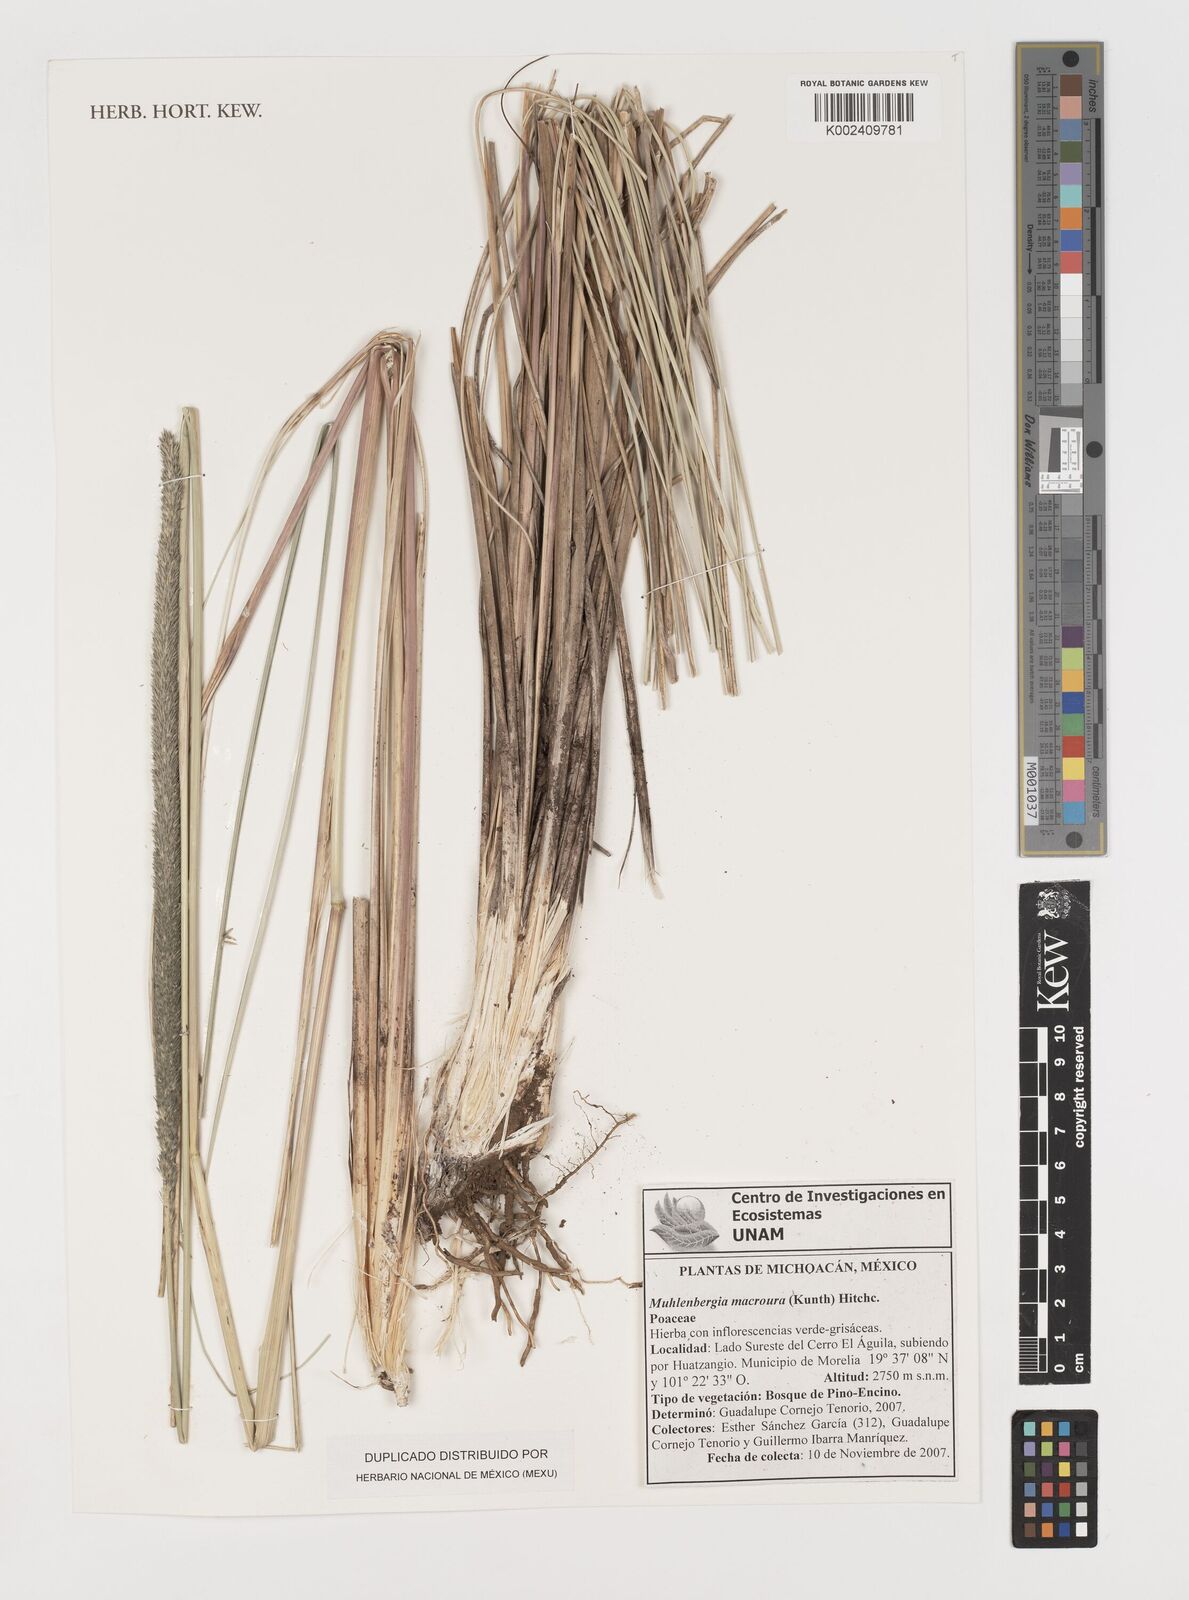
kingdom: Plantae
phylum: Tracheophyta
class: Liliopsida
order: Poales
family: Poaceae
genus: Muhlenbergia
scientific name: Muhlenbergia macroura
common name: Mexican broomroot
